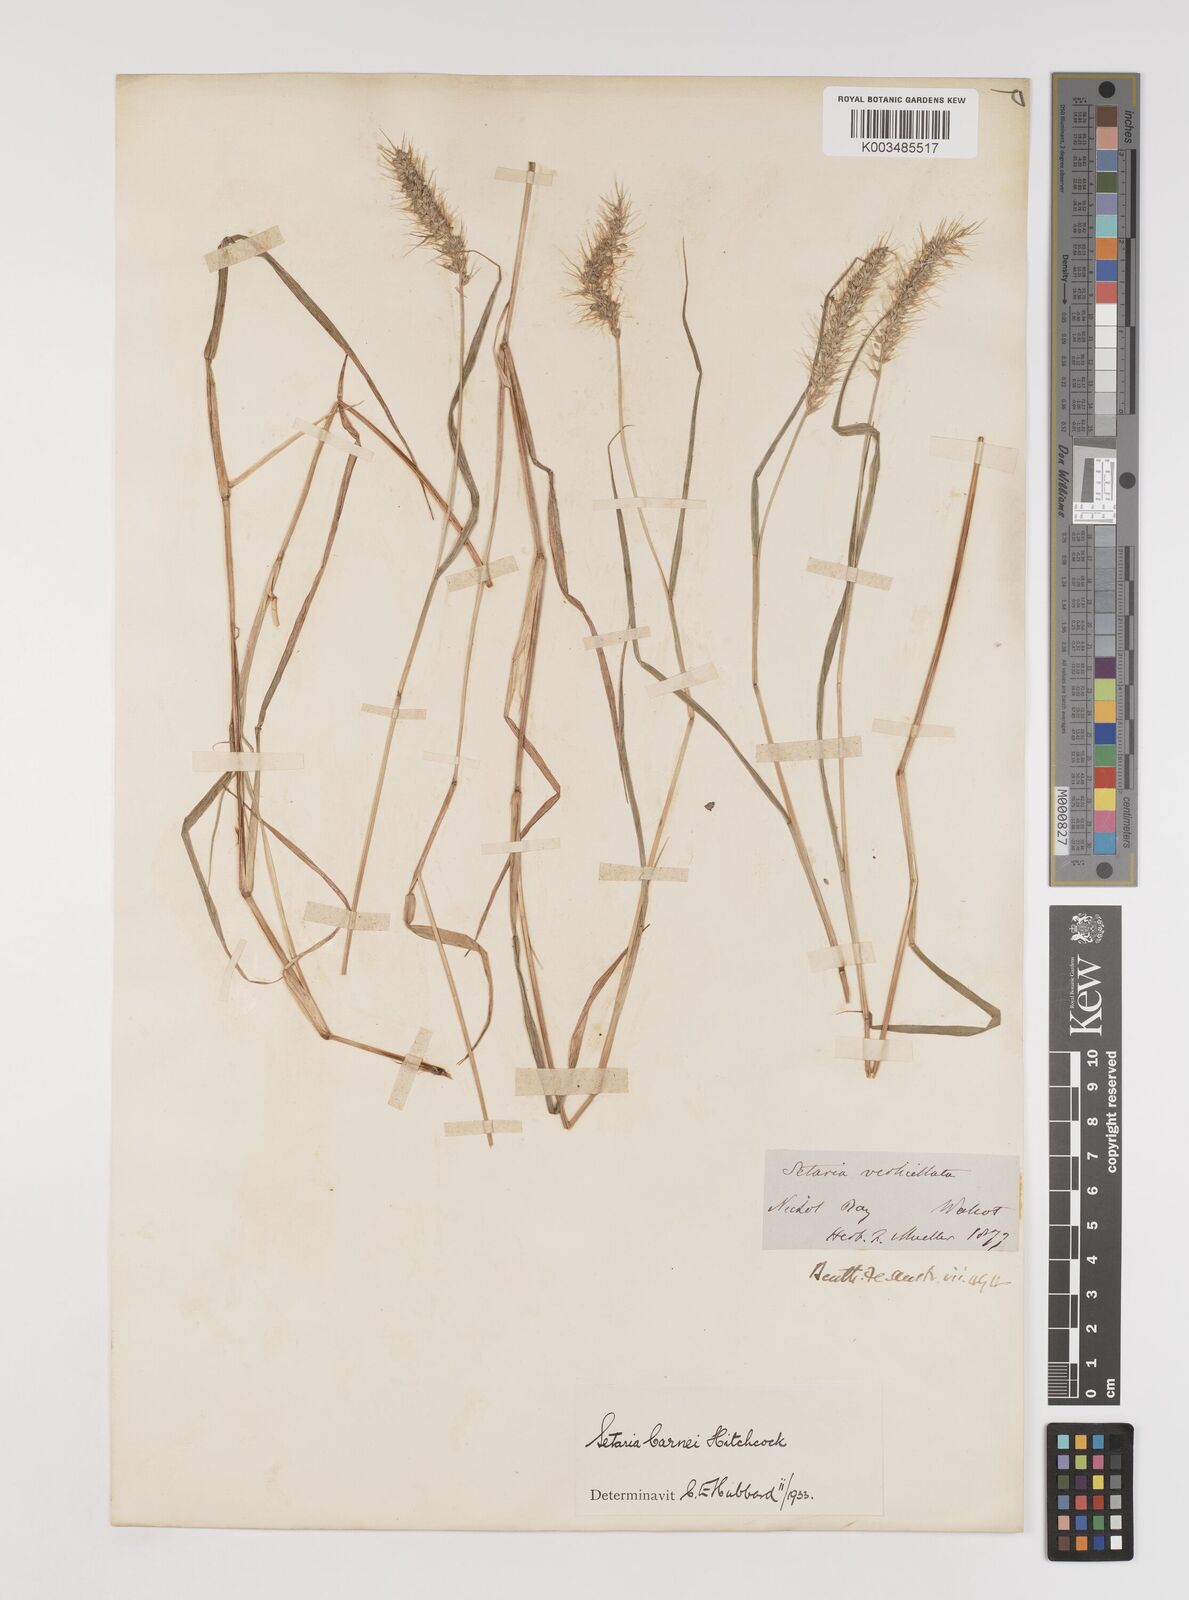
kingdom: Plantae
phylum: Tracheophyta
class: Liliopsida
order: Poales
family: Poaceae
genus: Setaria
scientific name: Setaria verticillata
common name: Hooked bristlegrass
